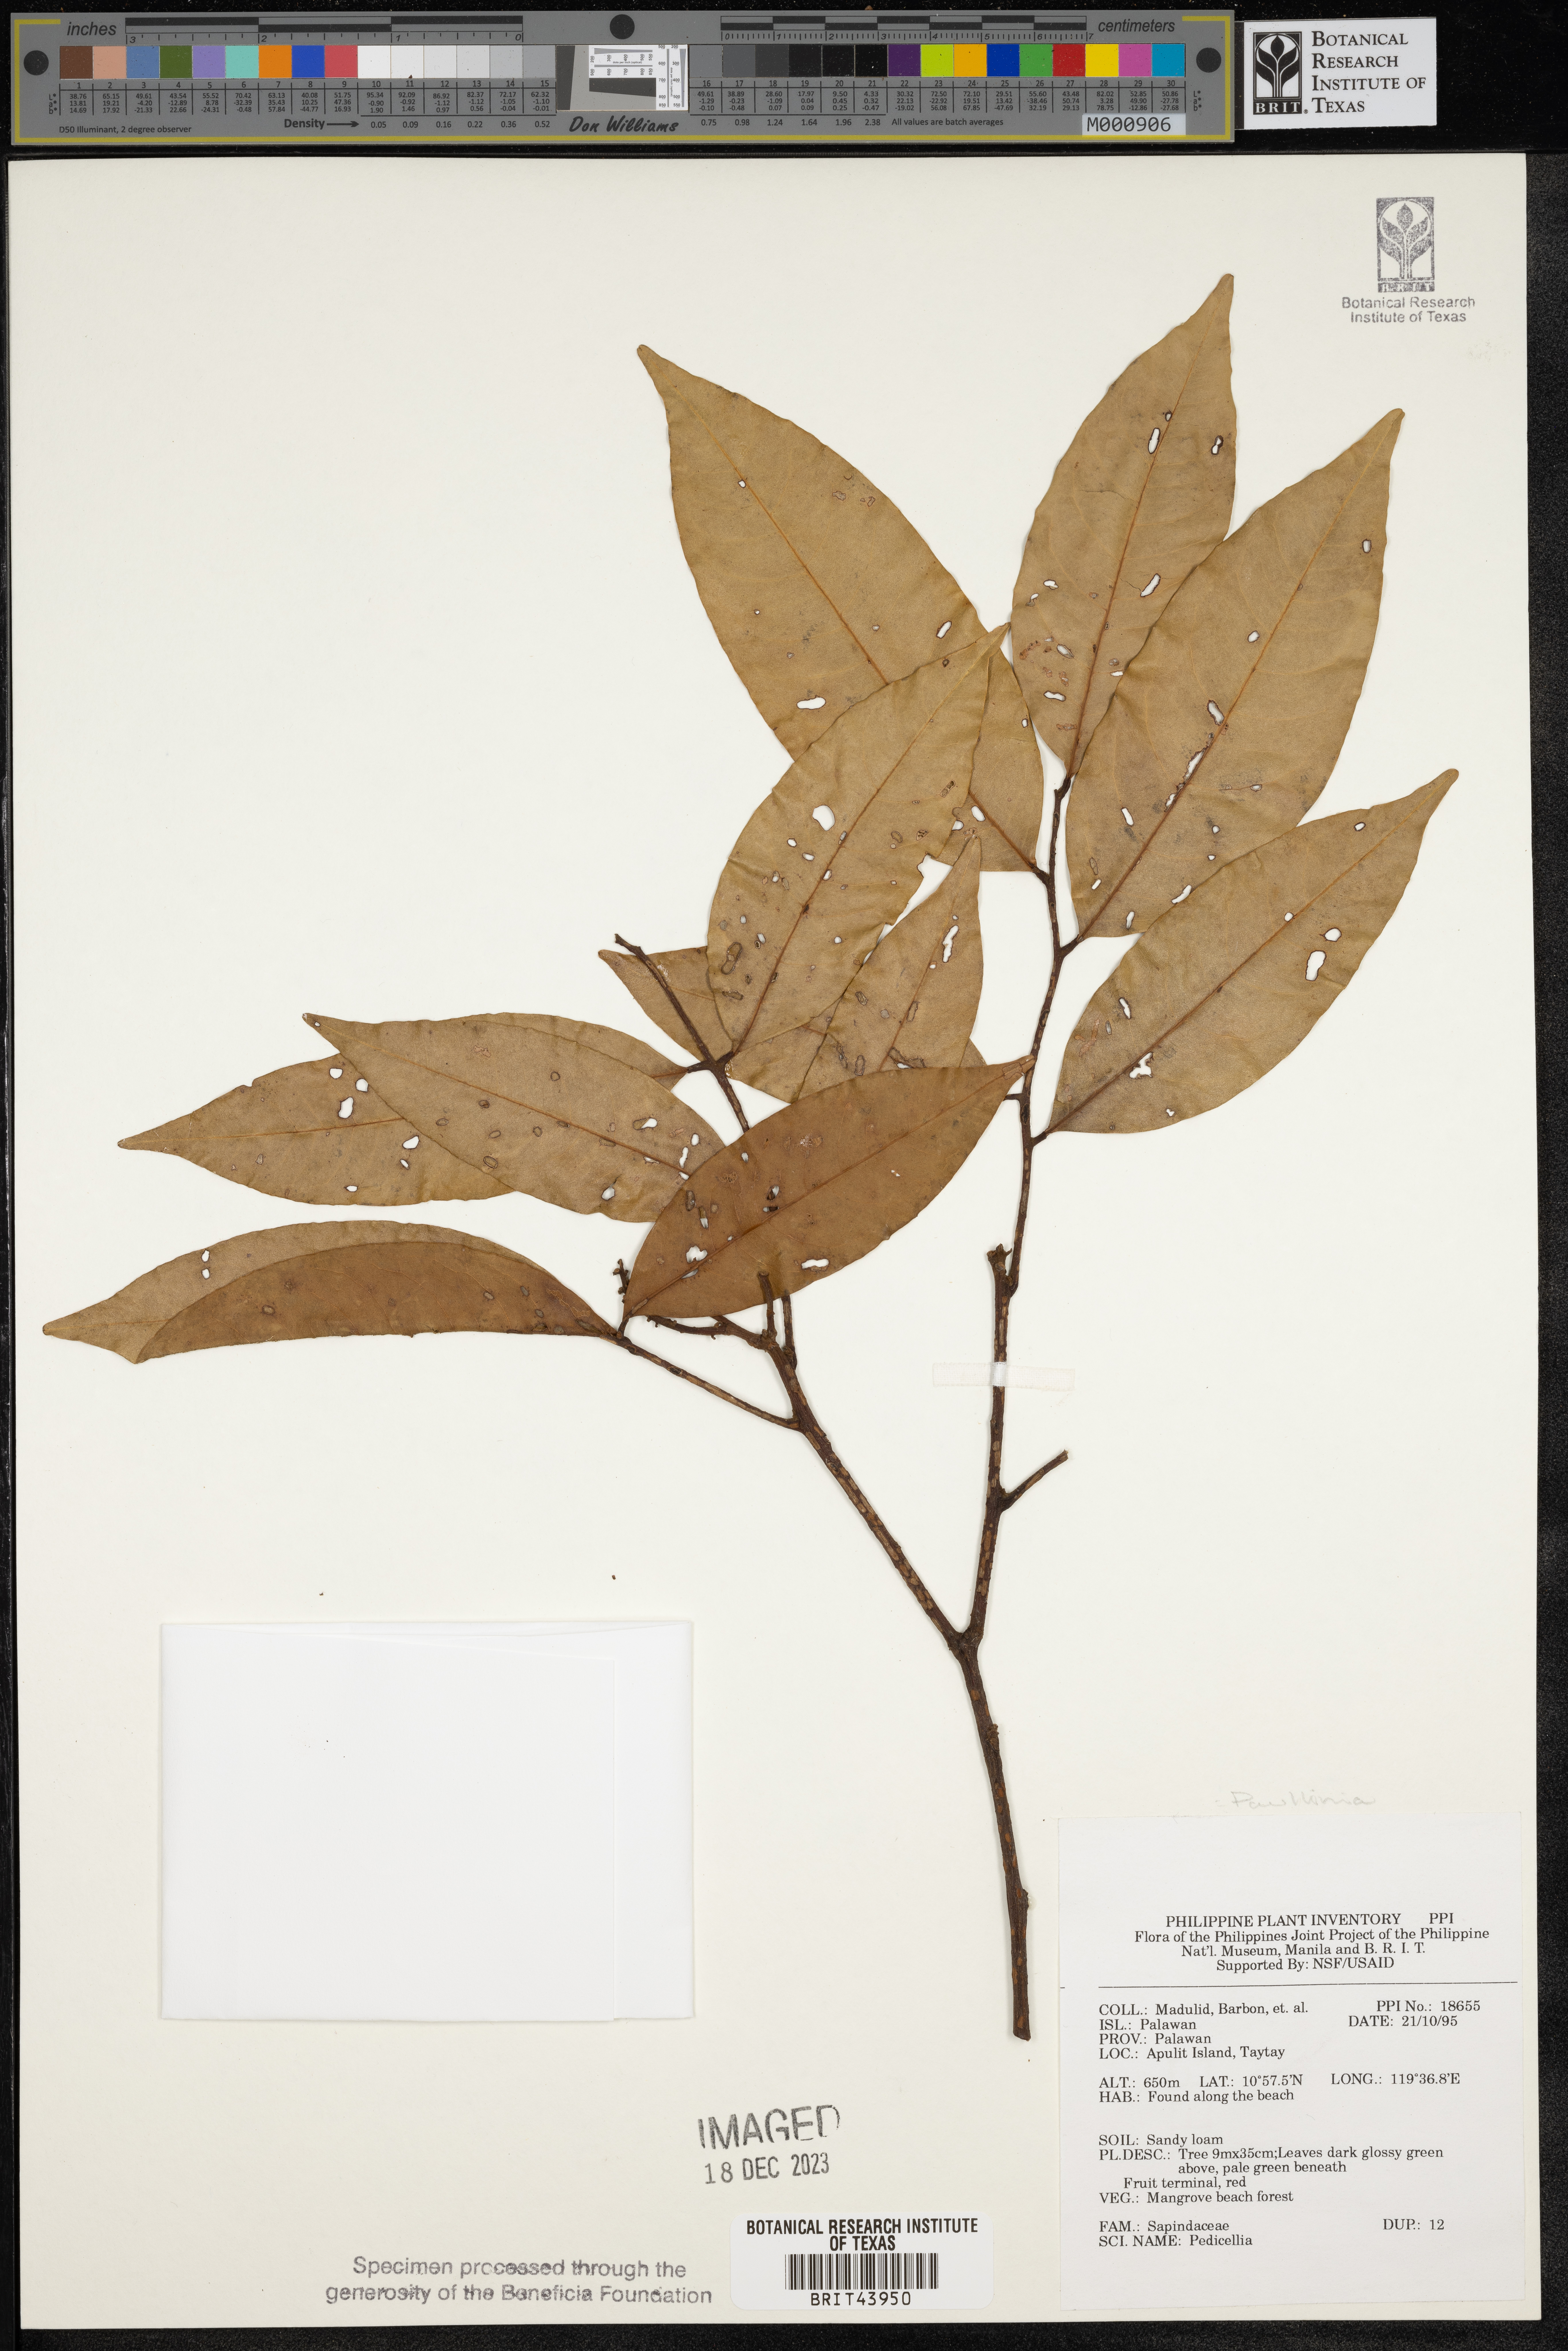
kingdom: Plantae
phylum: Tracheophyta
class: Magnoliopsida
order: Sapindales
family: Sapindaceae
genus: Paullinia
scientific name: Paullinia
